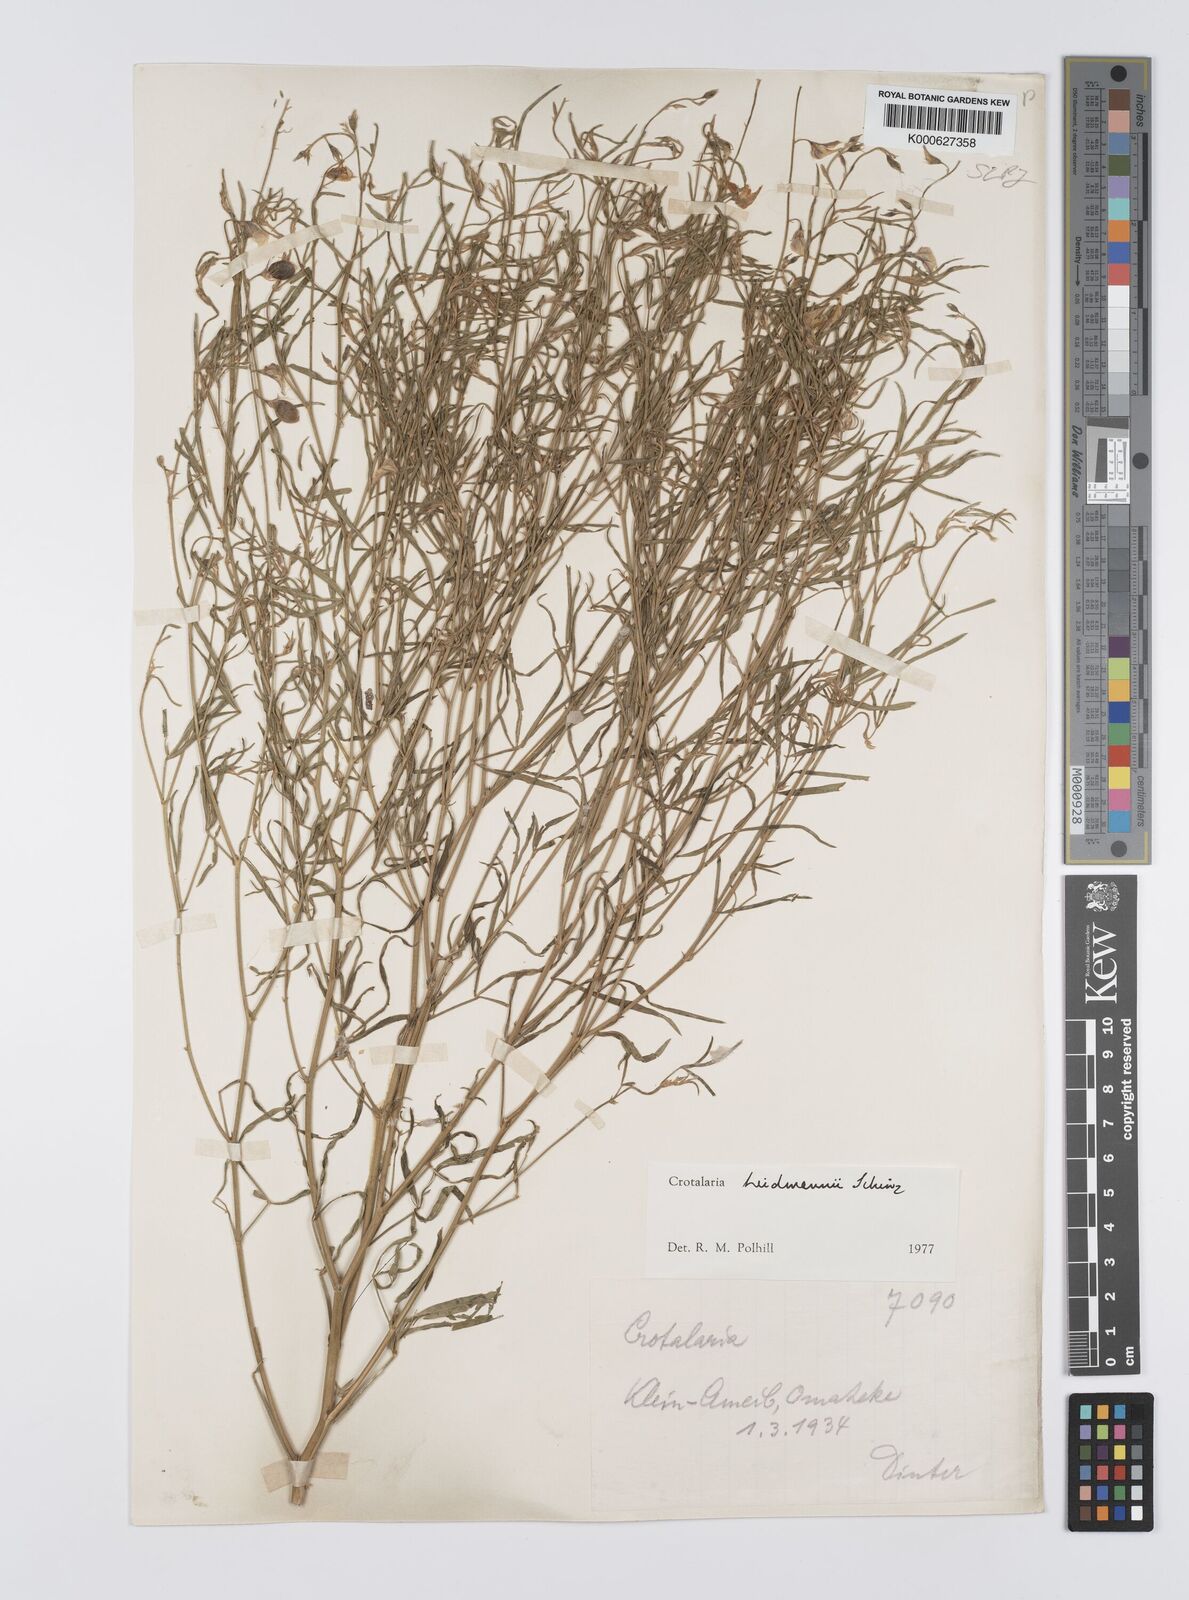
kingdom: Plantae
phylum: Tracheophyta
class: Magnoliopsida
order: Fabales
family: Fabaceae
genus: Crotalaria
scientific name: Crotalaria heidmannii
